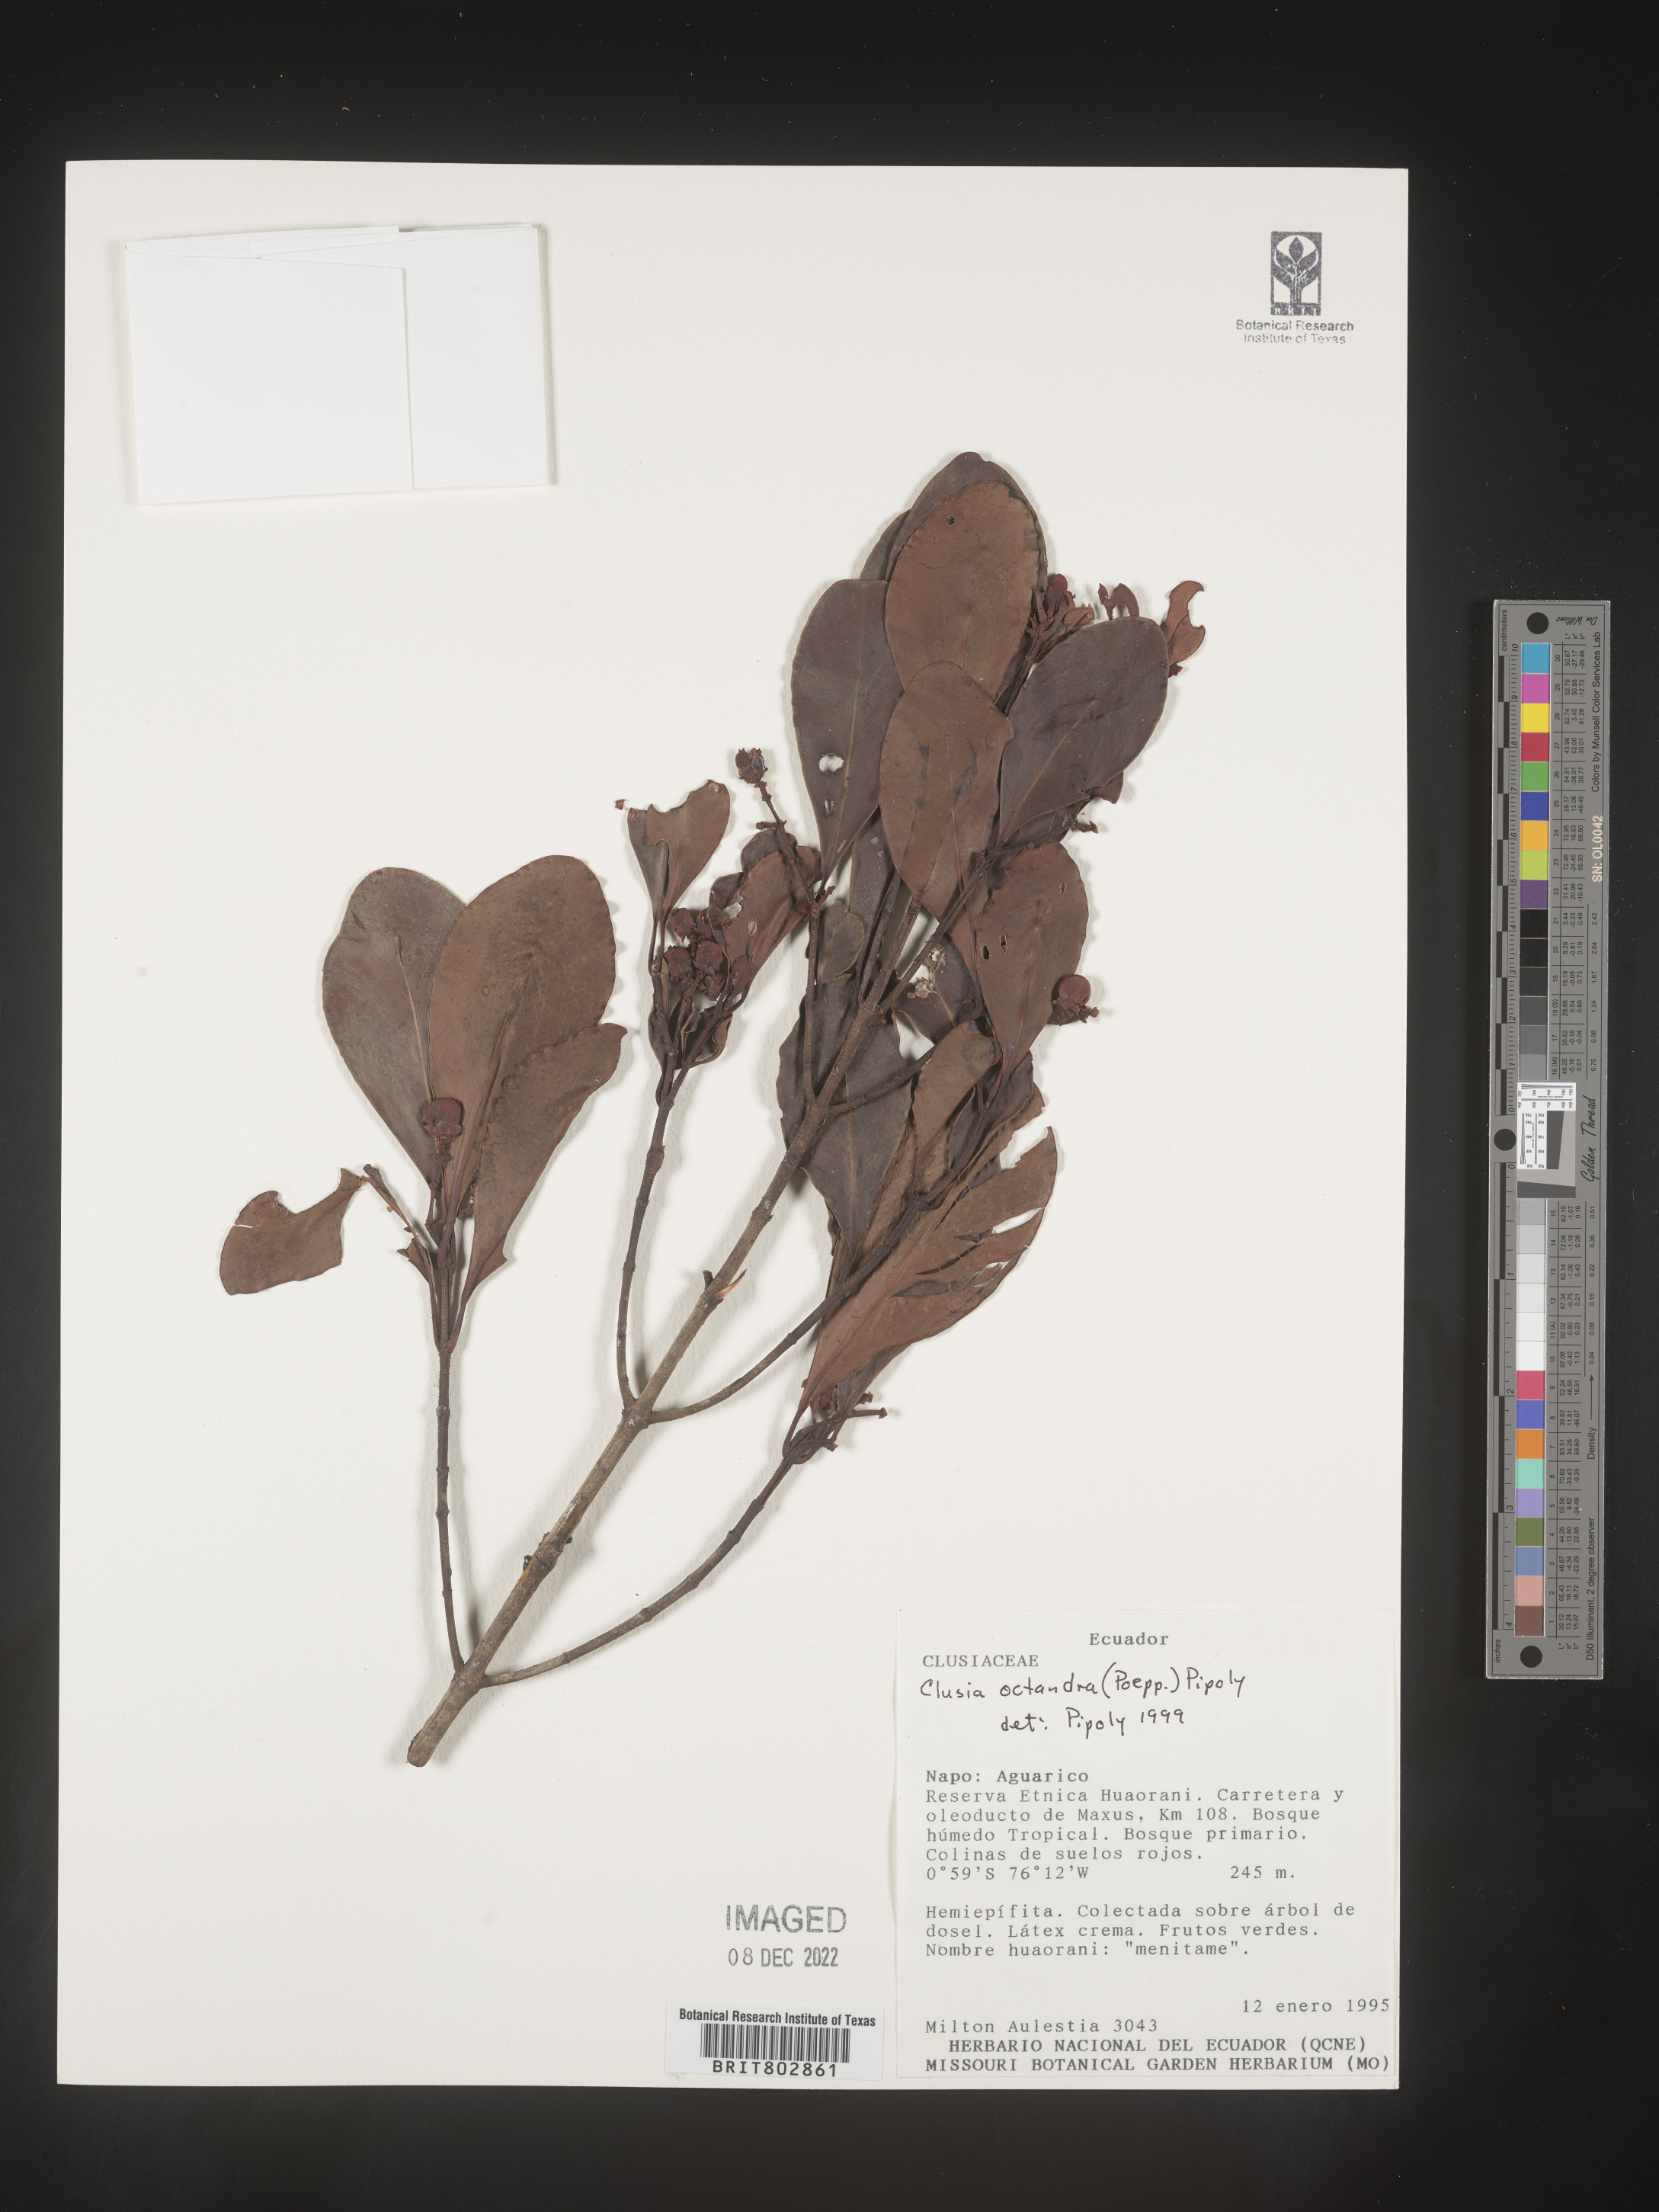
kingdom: Plantae
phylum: Tracheophyta
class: Magnoliopsida
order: Malpighiales
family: Clusiaceae
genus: Clusia
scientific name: Clusia
